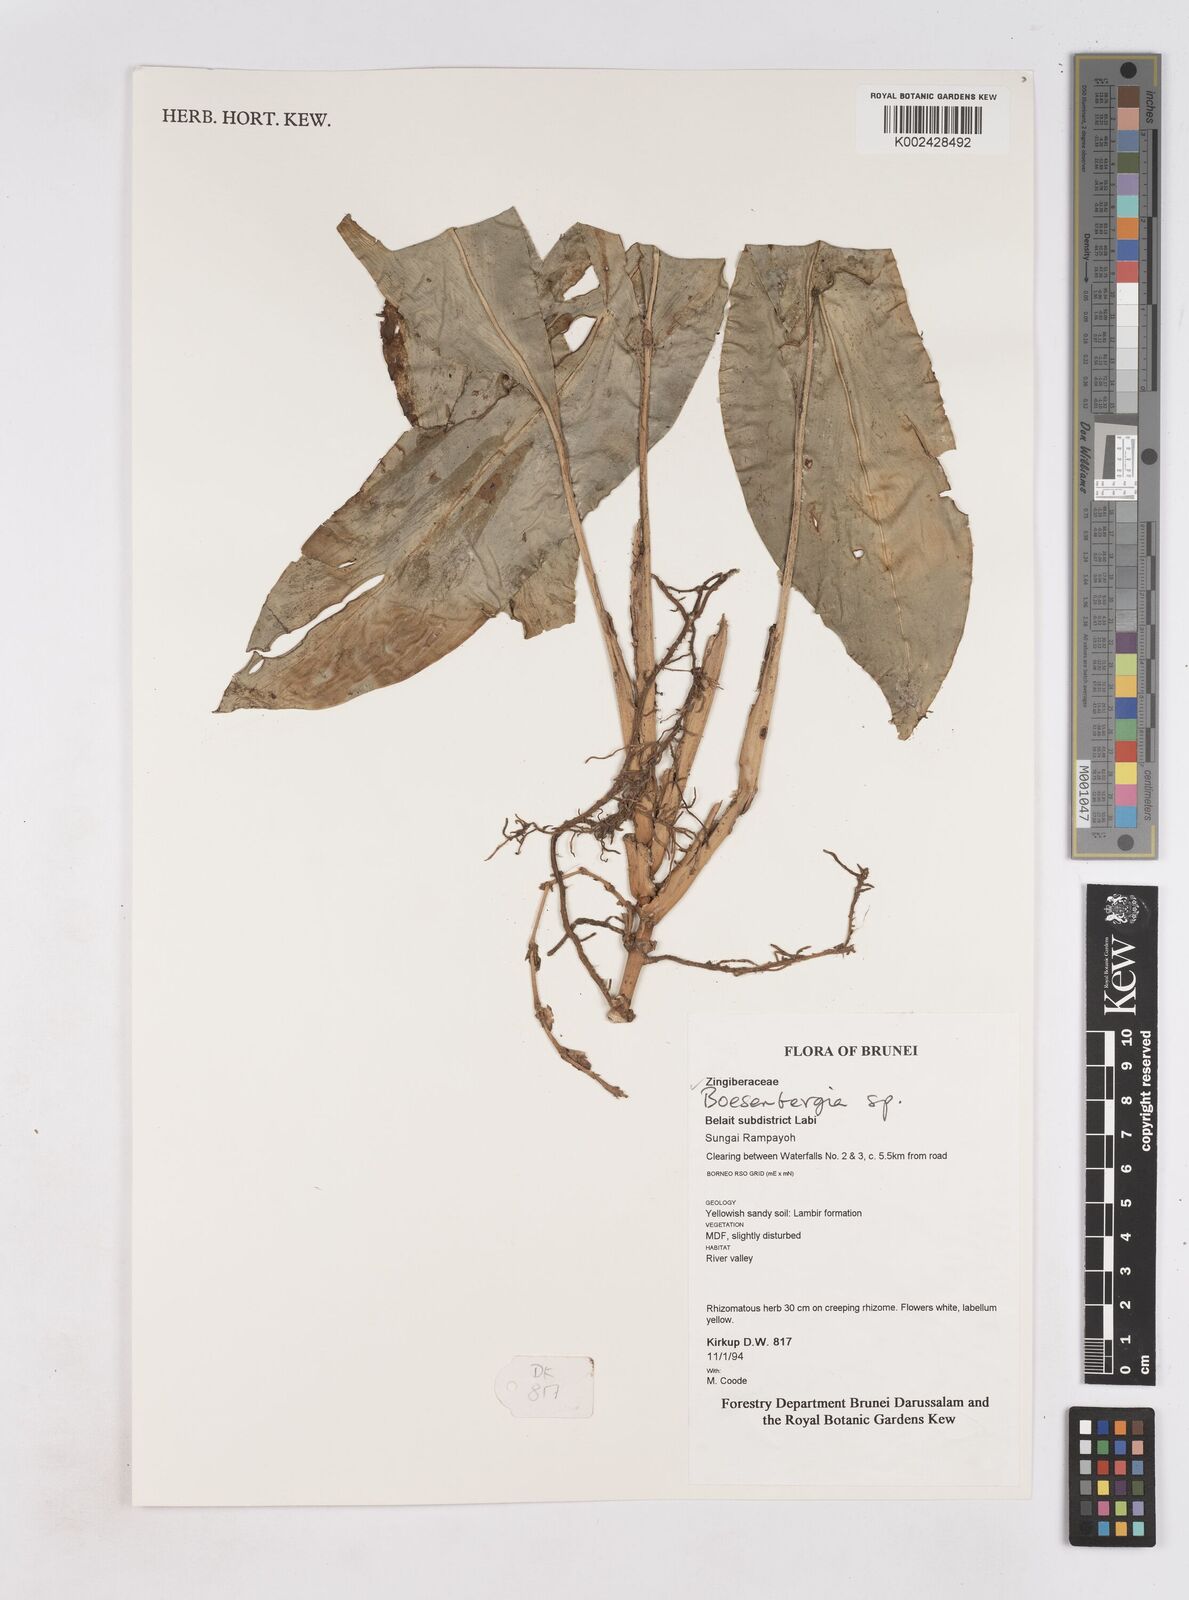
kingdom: Plantae
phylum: Tracheophyta
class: Liliopsida
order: Zingiberales
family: Zingiberaceae
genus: Boesenbergia
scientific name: Boesenbergia
